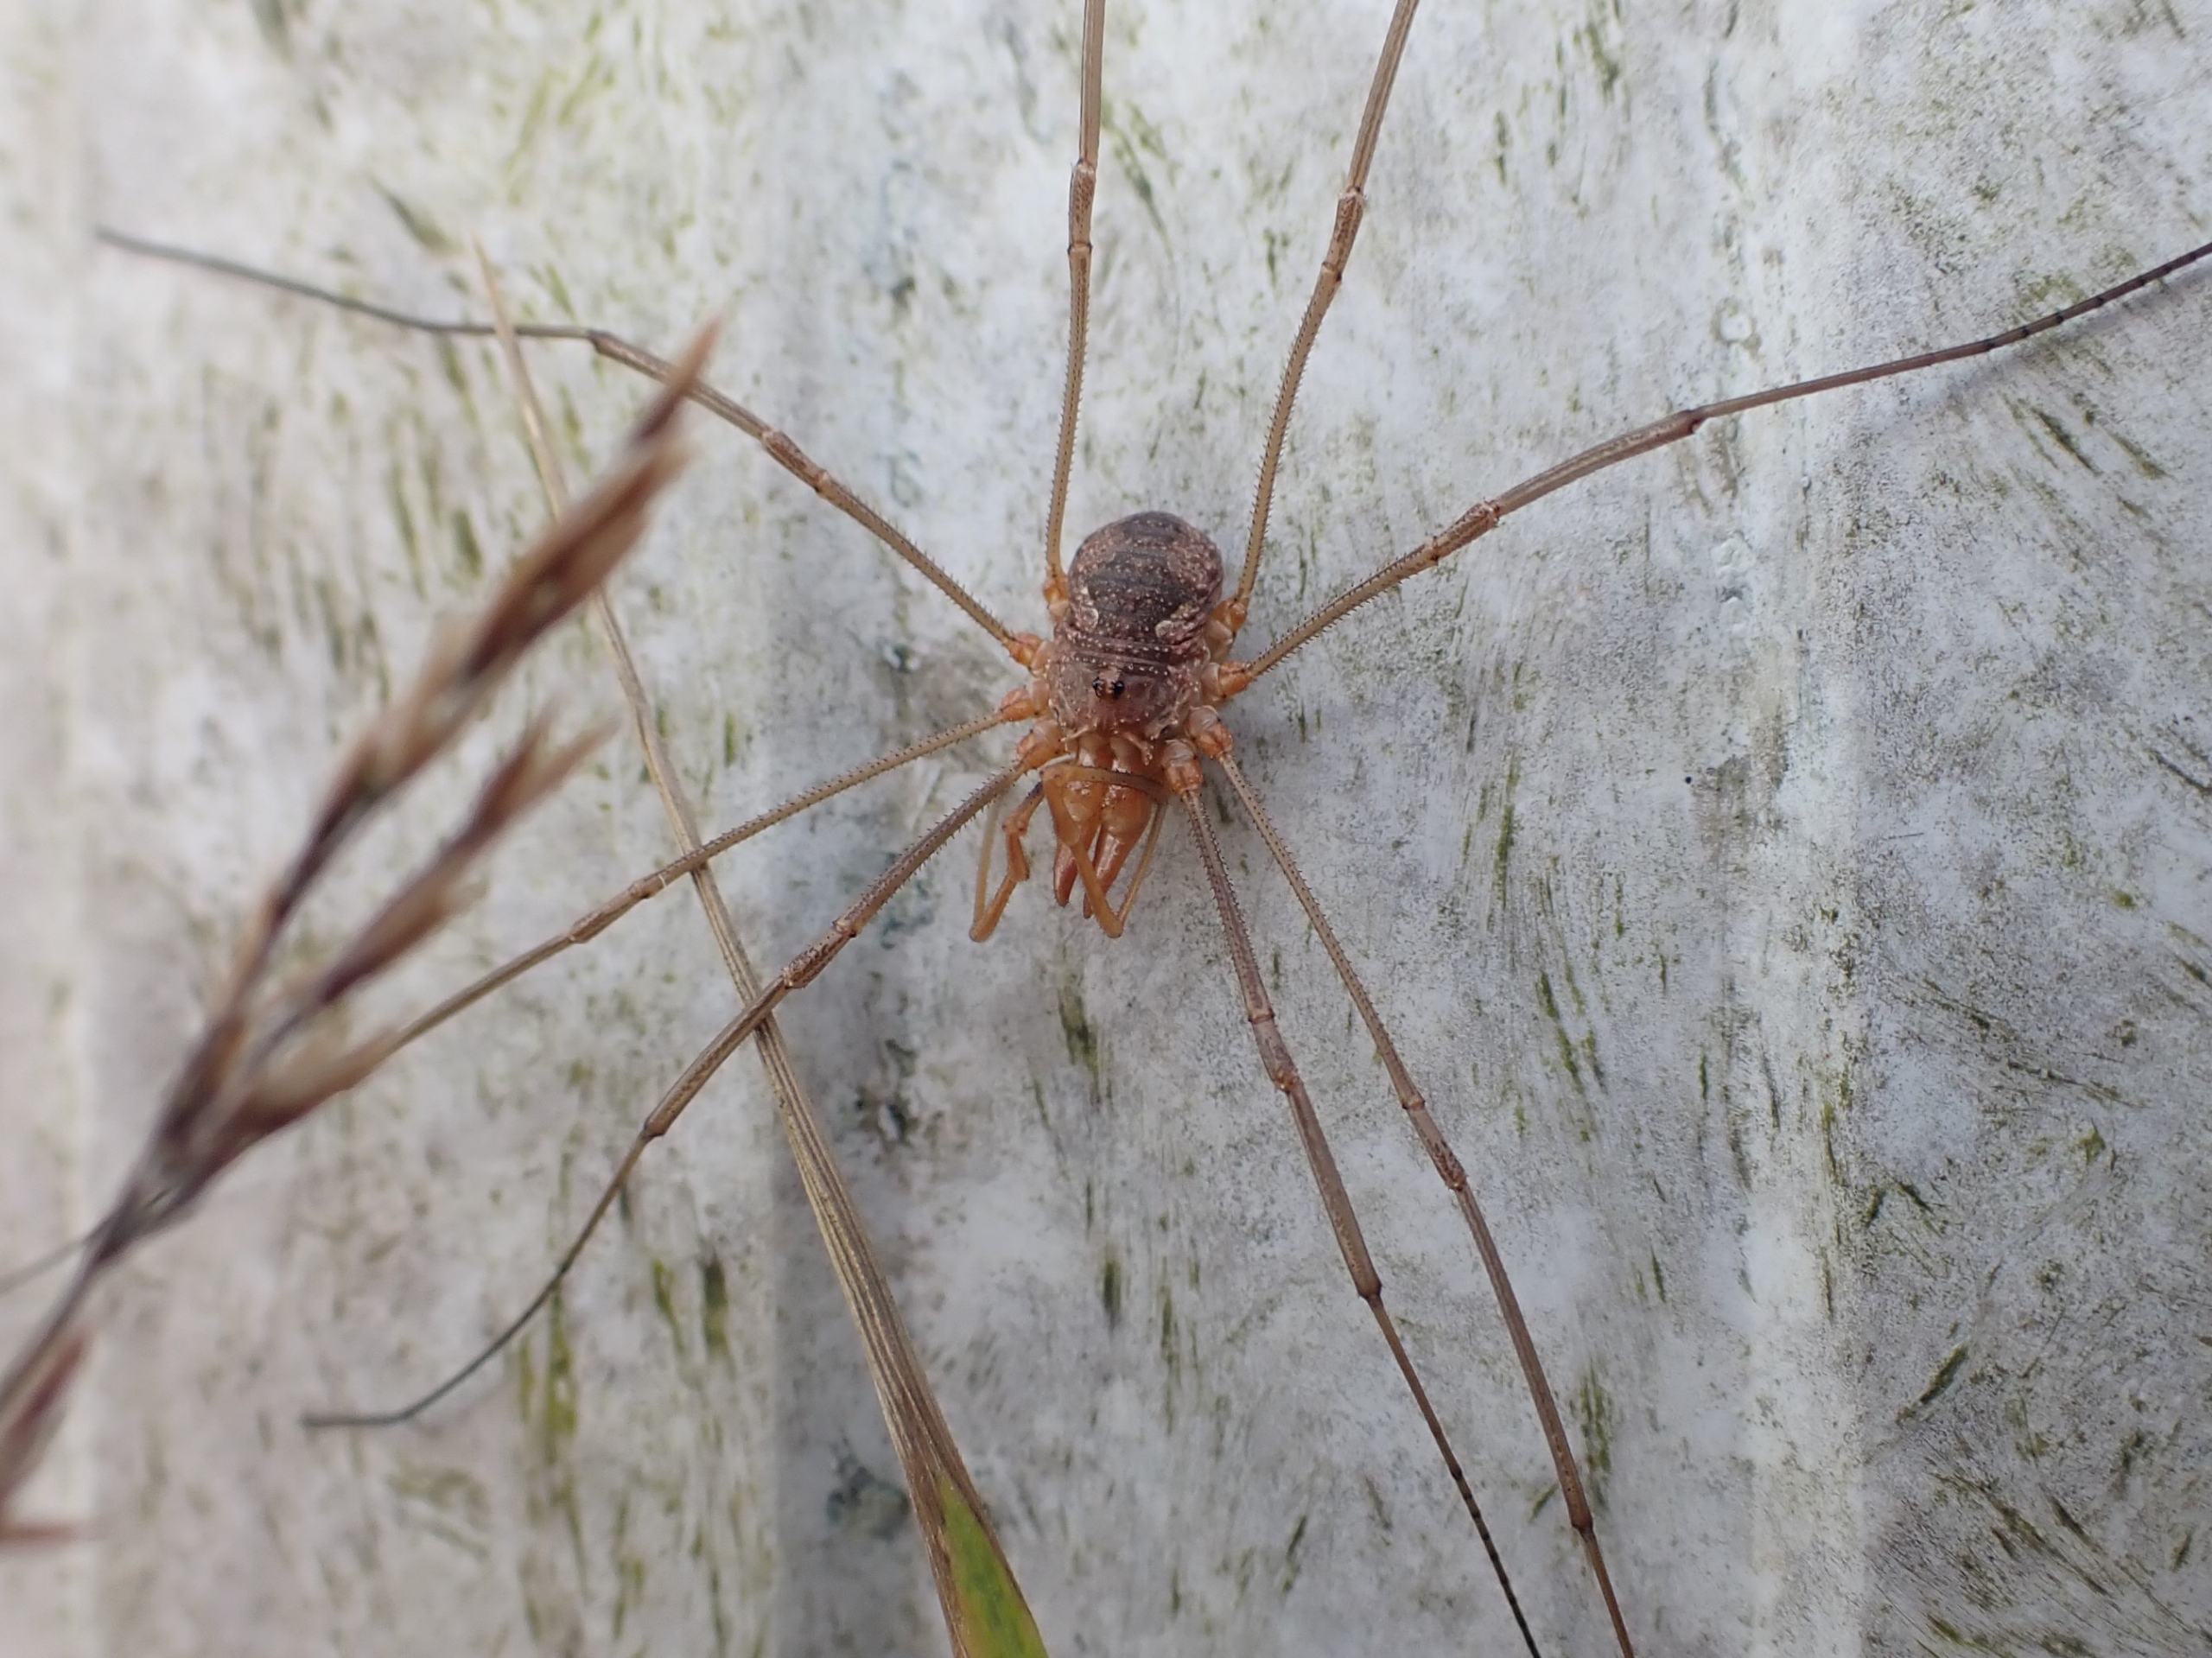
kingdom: Animalia
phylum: Arthropoda
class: Arachnida
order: Opiliones
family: Phalangiidae
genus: Phalangium
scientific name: Phalangium opilio
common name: Hornmejer
